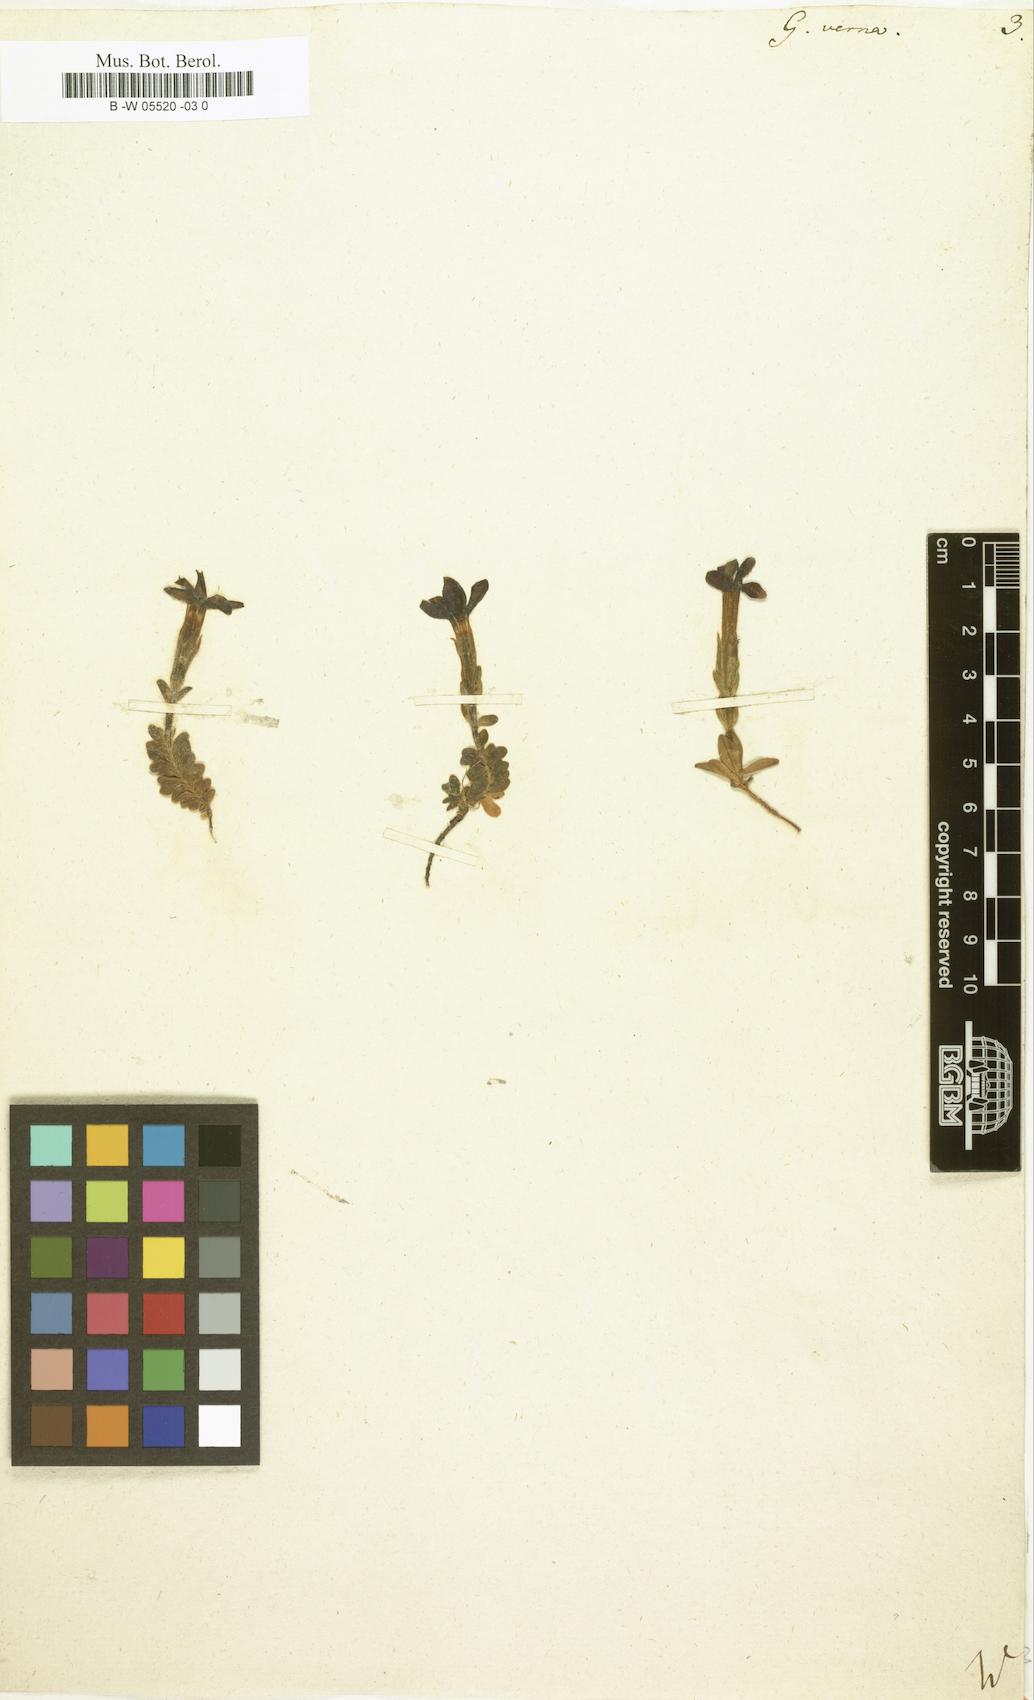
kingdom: Plantae
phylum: Tracheophyta
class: Magnoliopsida
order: Gentianales
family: Gentianaceae
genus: Gentiana
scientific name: Gentiana verna
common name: Spring gentian
